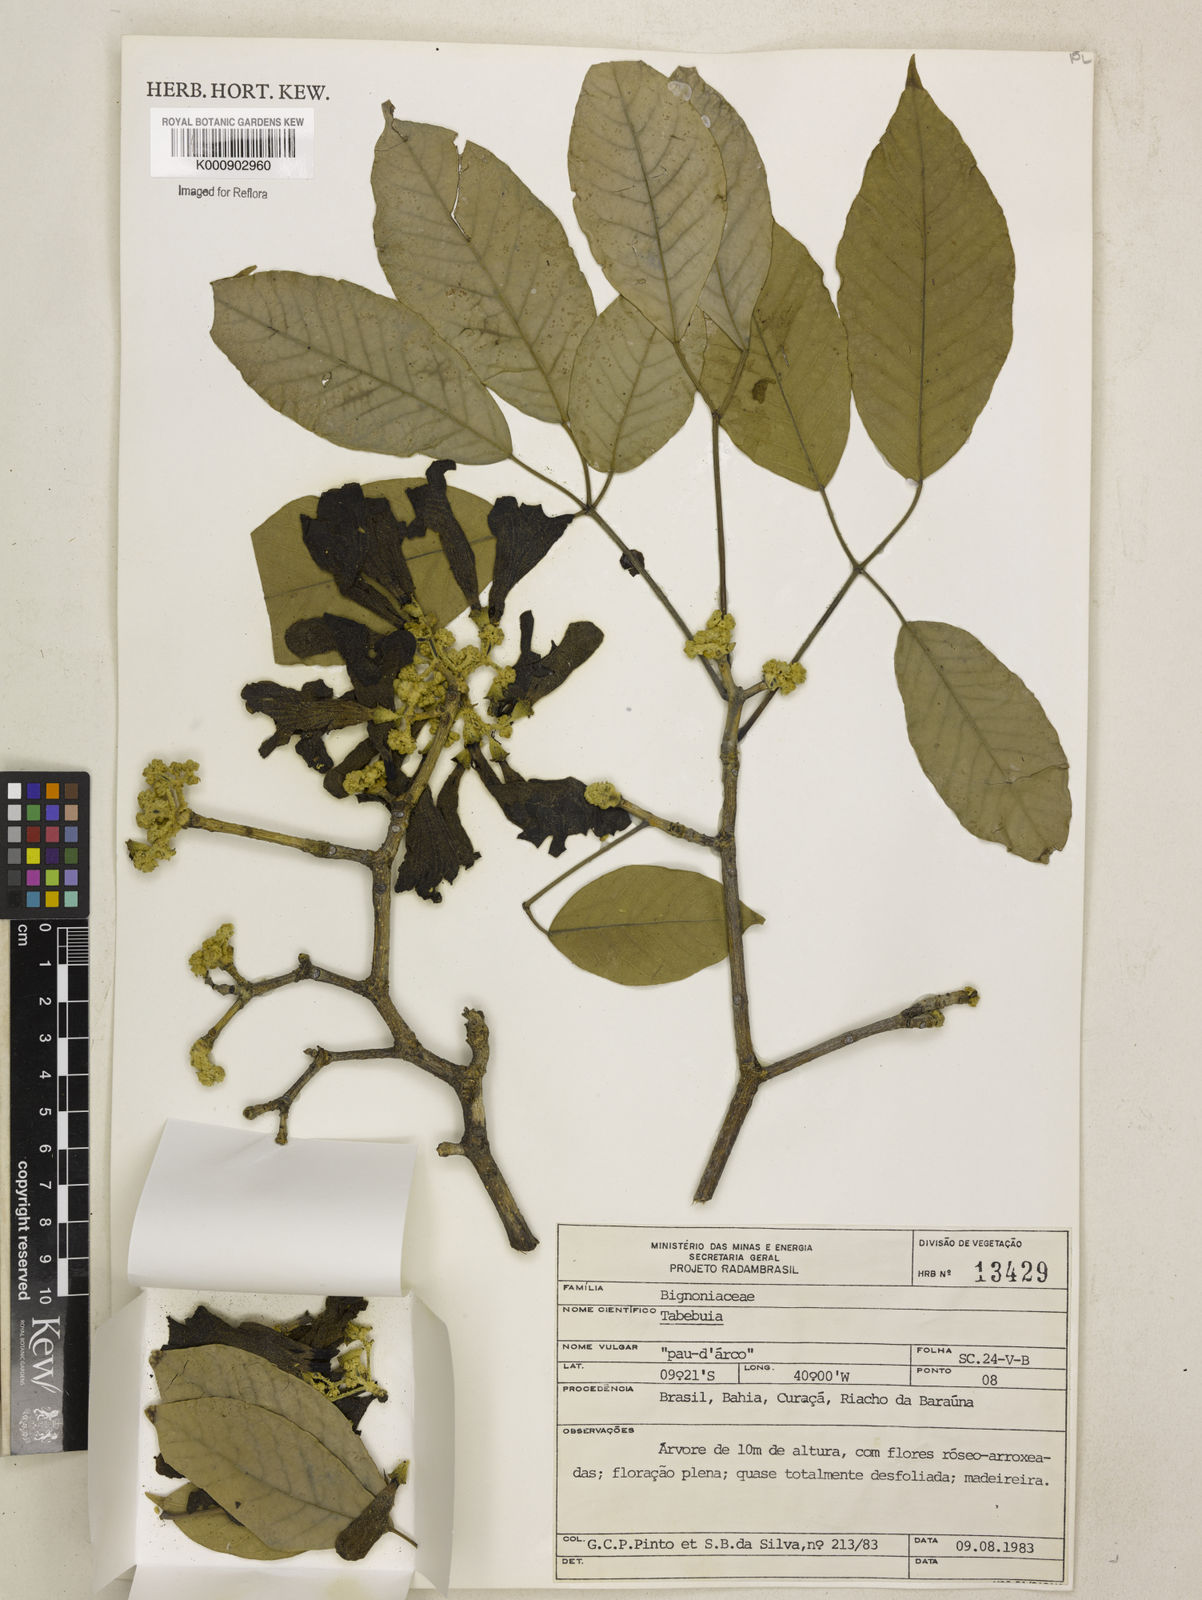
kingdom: Plantae
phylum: Tracheophyta
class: Magnoliopsida
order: Lamiales
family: Bignoniaceae
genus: Tabebuia
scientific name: Tabebuia
